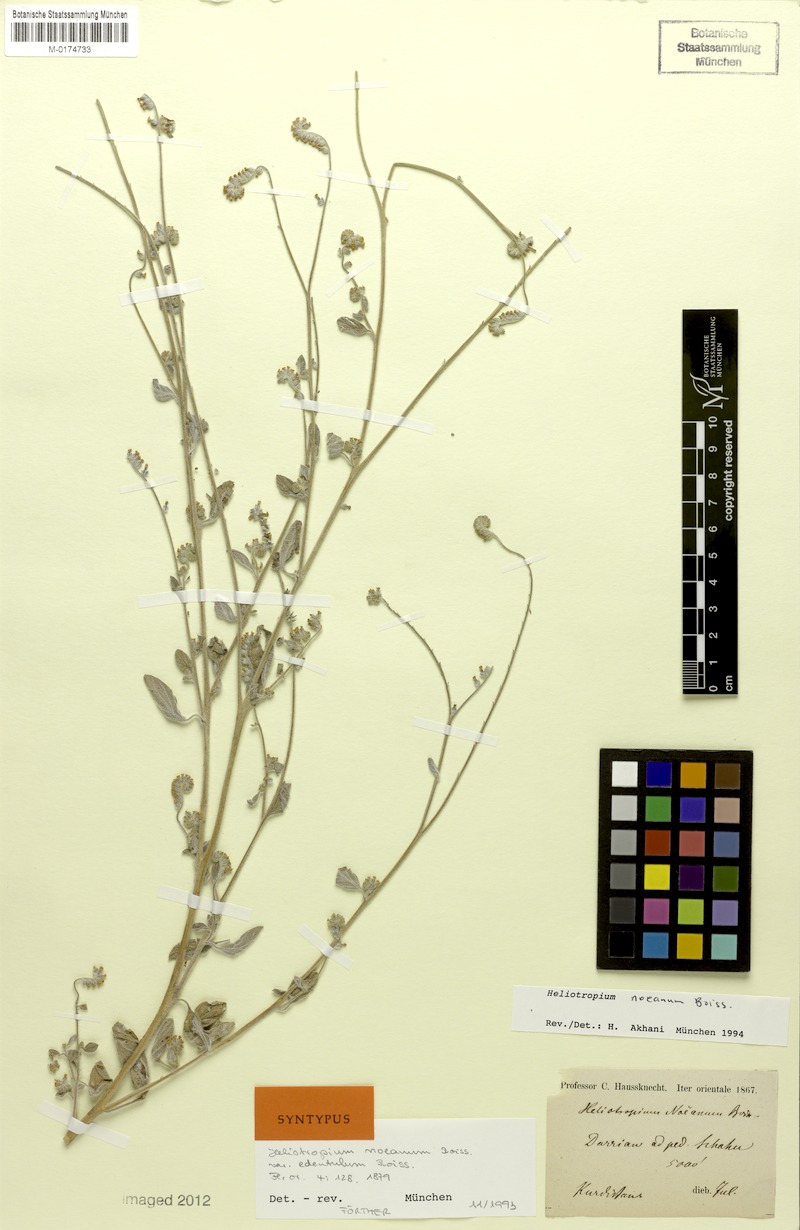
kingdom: Plantae
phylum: Tracheophyta
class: Magnoliopsida
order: Boraginales
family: Heliotropiaceae
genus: Heliotropium
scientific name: Heliotropium noeanum
